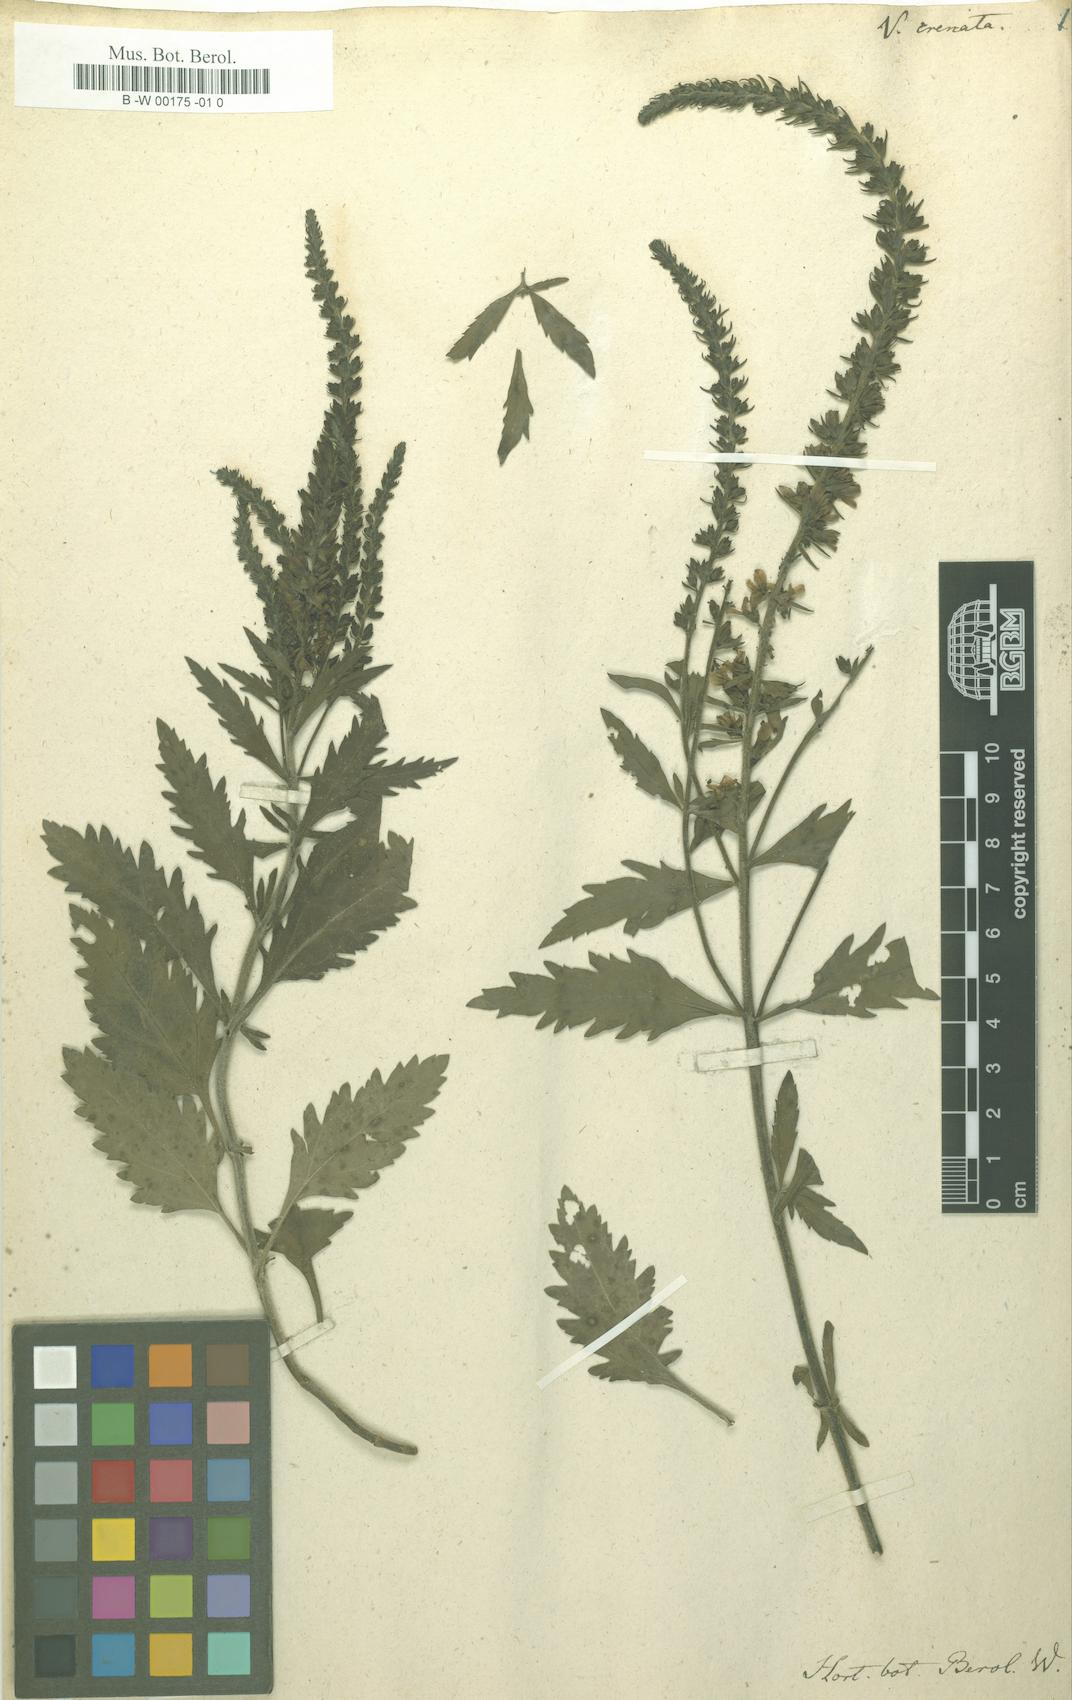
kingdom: Plantae
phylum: Tracheophyta
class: Magnoliopsida
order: Lamiales
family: Plantaginaceae
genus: Veronica
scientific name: Veronica crenata
